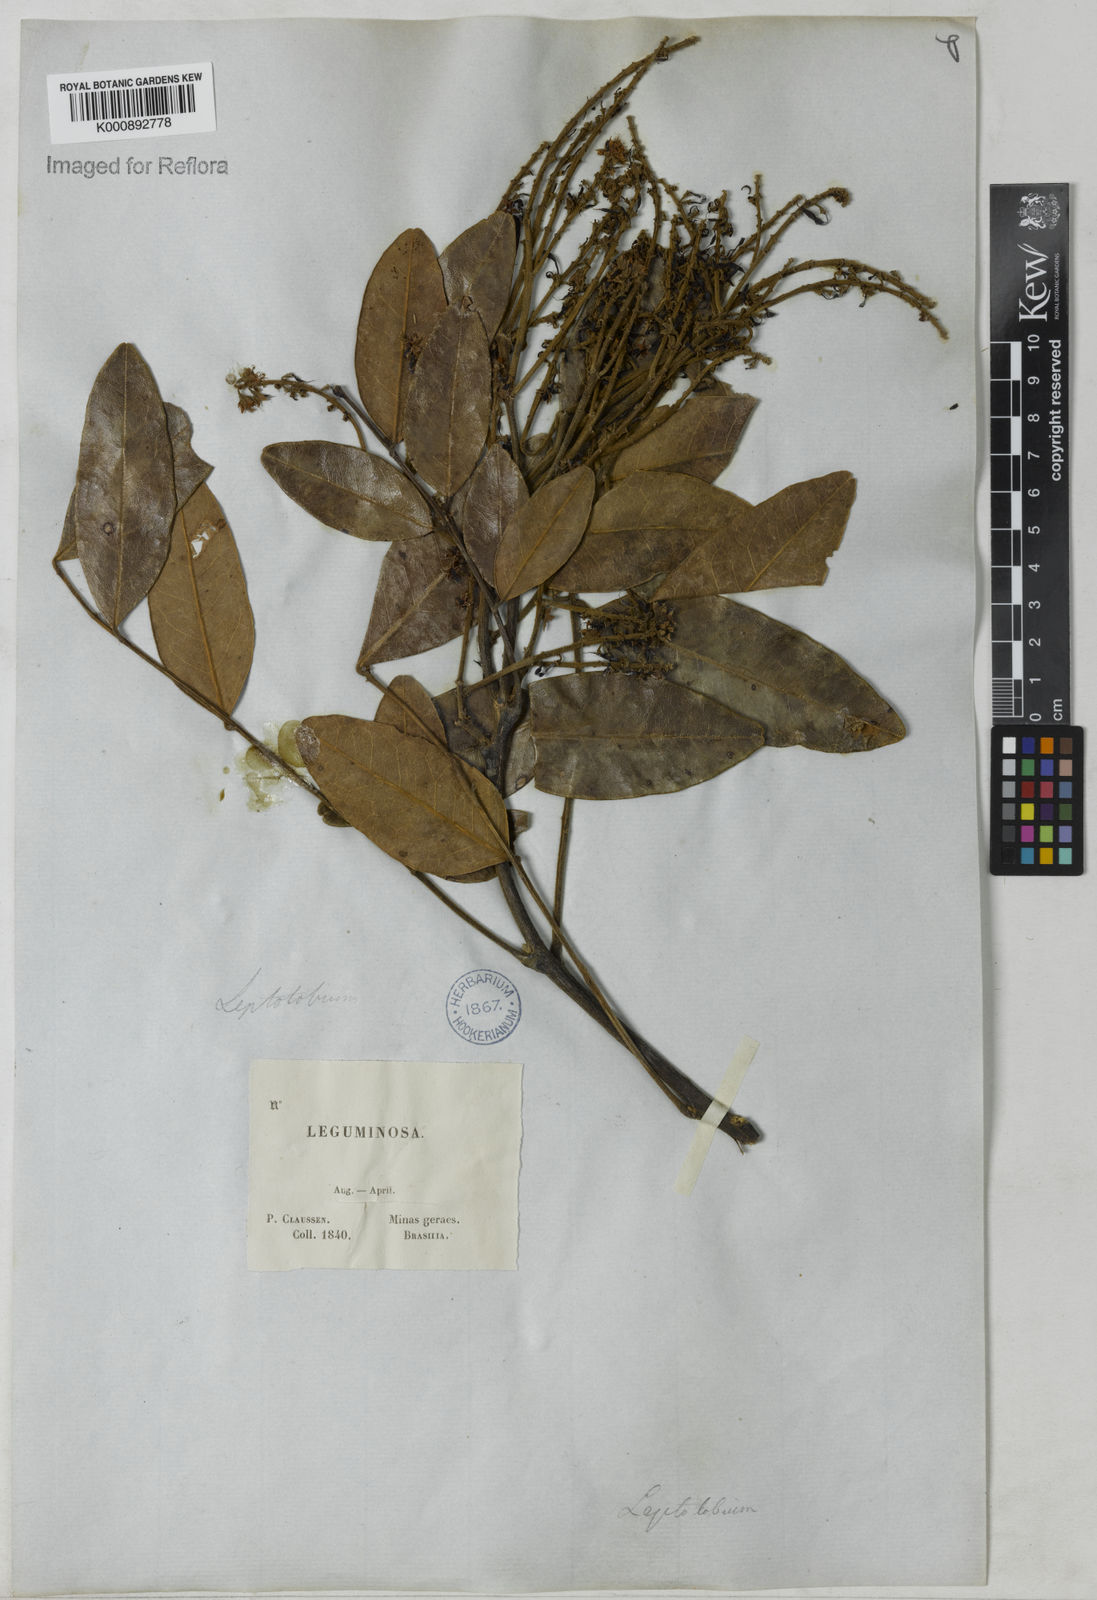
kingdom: Plantae
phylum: Tracheophyta
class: Magnoliopsida
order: Fabales
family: Fabaceae
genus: Leptolobium
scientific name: Leptolobium
